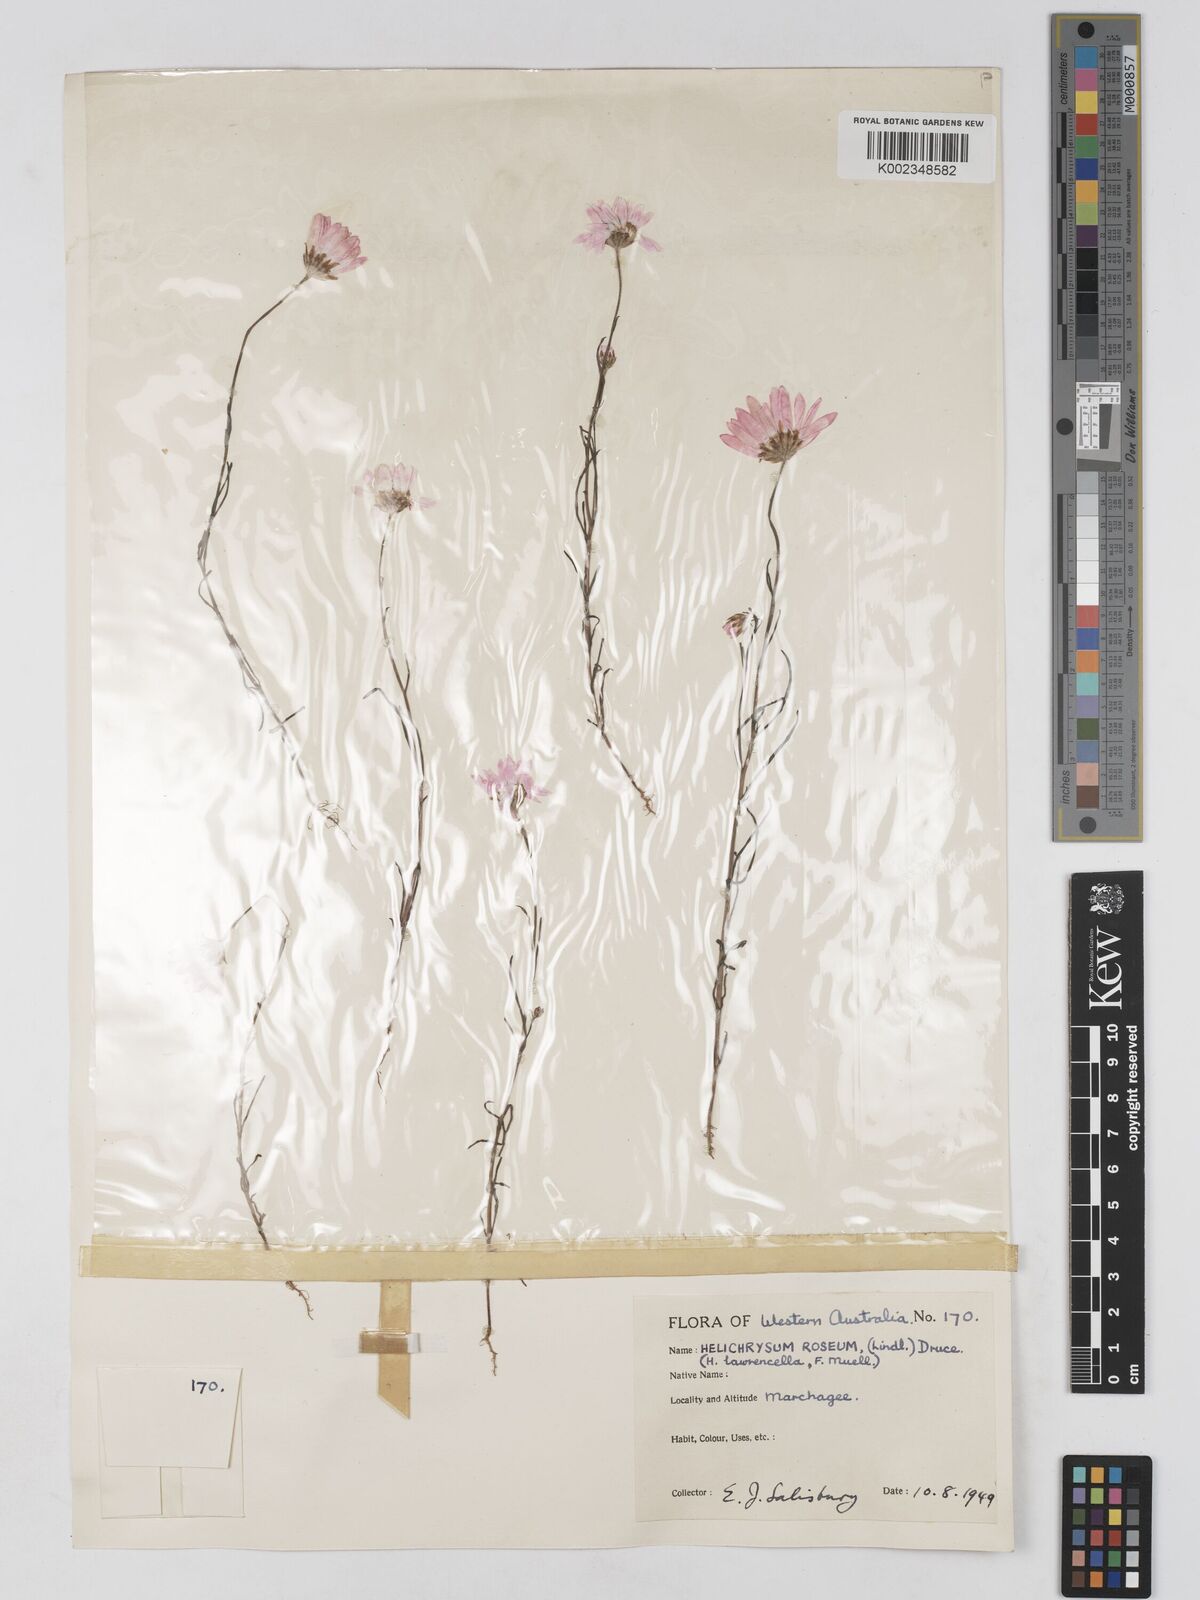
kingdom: Plantae
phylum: Tracheophyta
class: Magnoliopsida
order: Asterales
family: Asteraceae
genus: Lawrencella
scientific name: Lawrencella rosea
